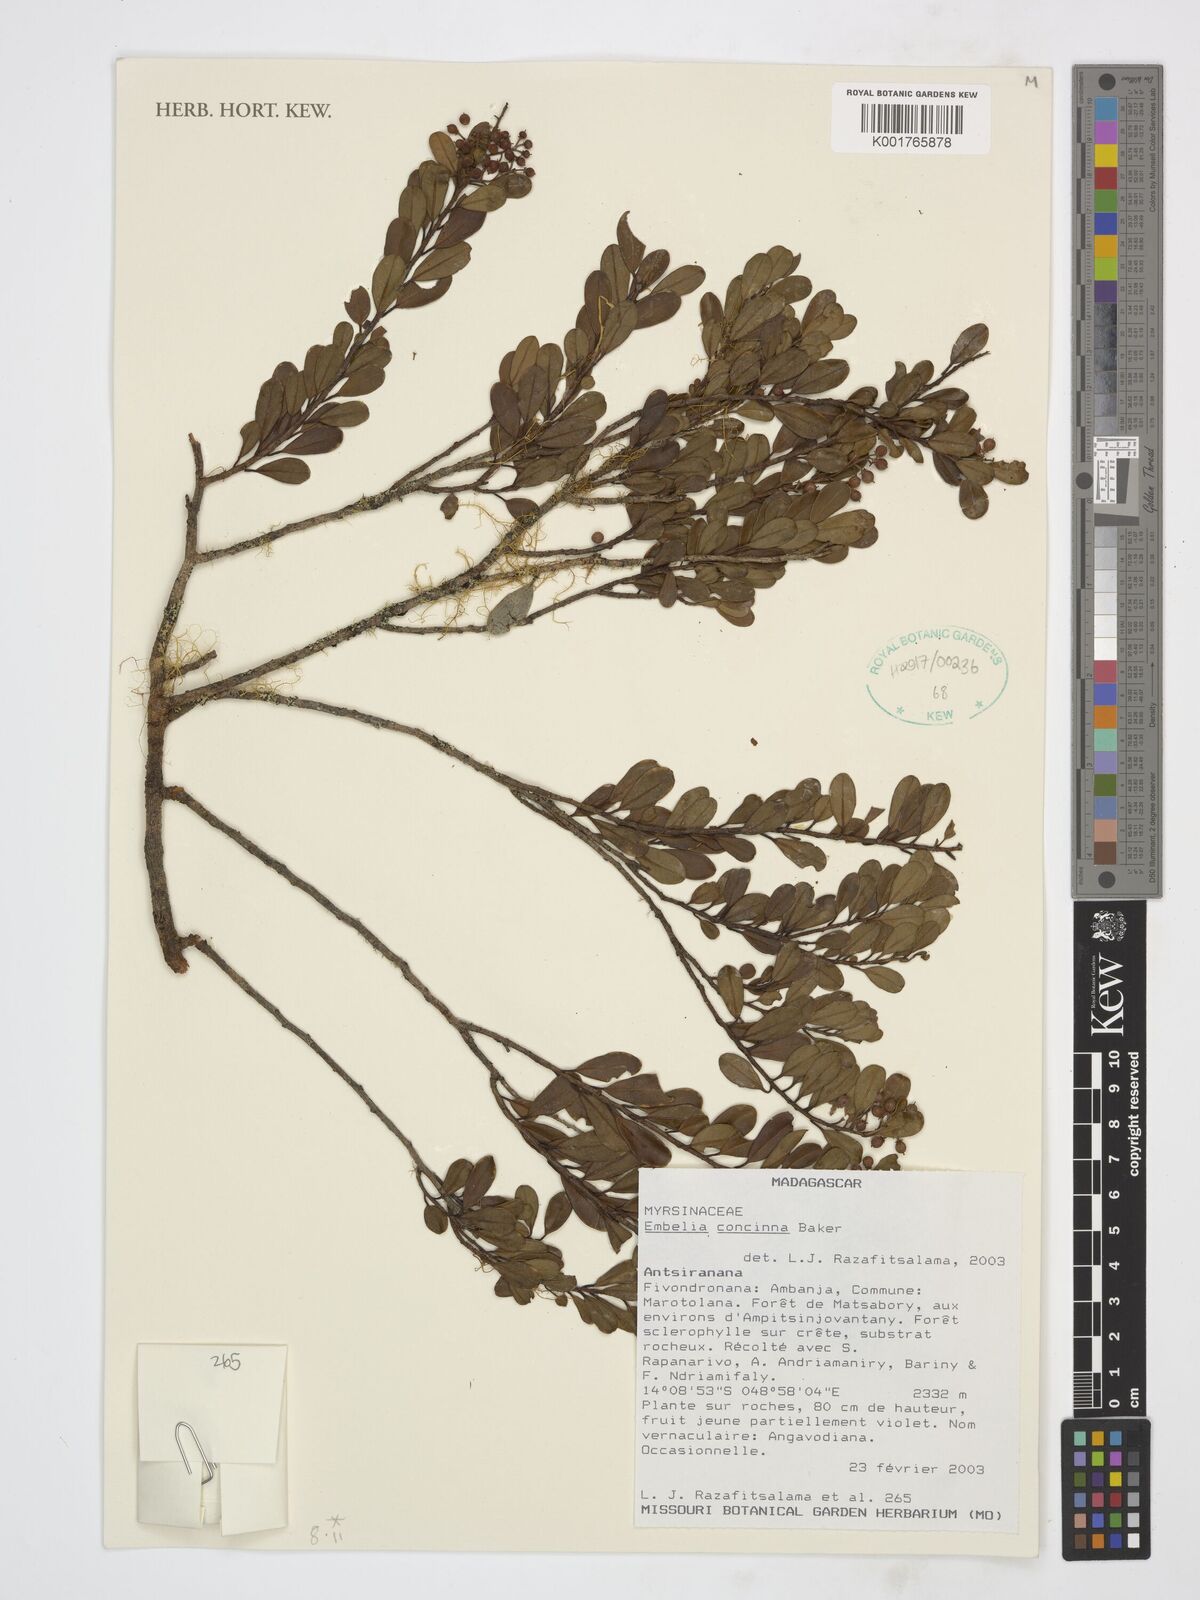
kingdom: Plantae
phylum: Tracheophyta
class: Magnoliopsida
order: Ericales
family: Primulaceae
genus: Embelia
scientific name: Embelia concinna
